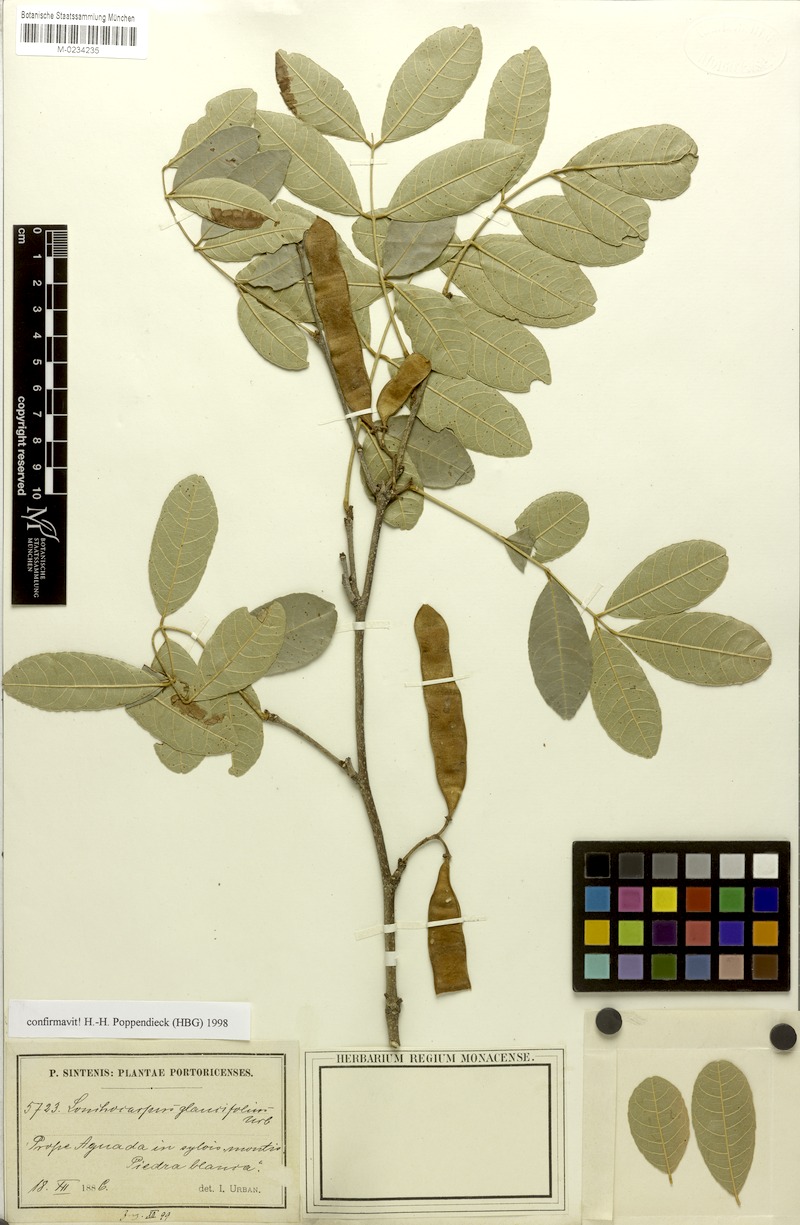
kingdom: Plantae
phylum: Tracheophyta
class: Magnoliopsida
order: Fabales
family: Fabaceae
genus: Lonchocarpus
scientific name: Lonchocarpus glaucifolius
